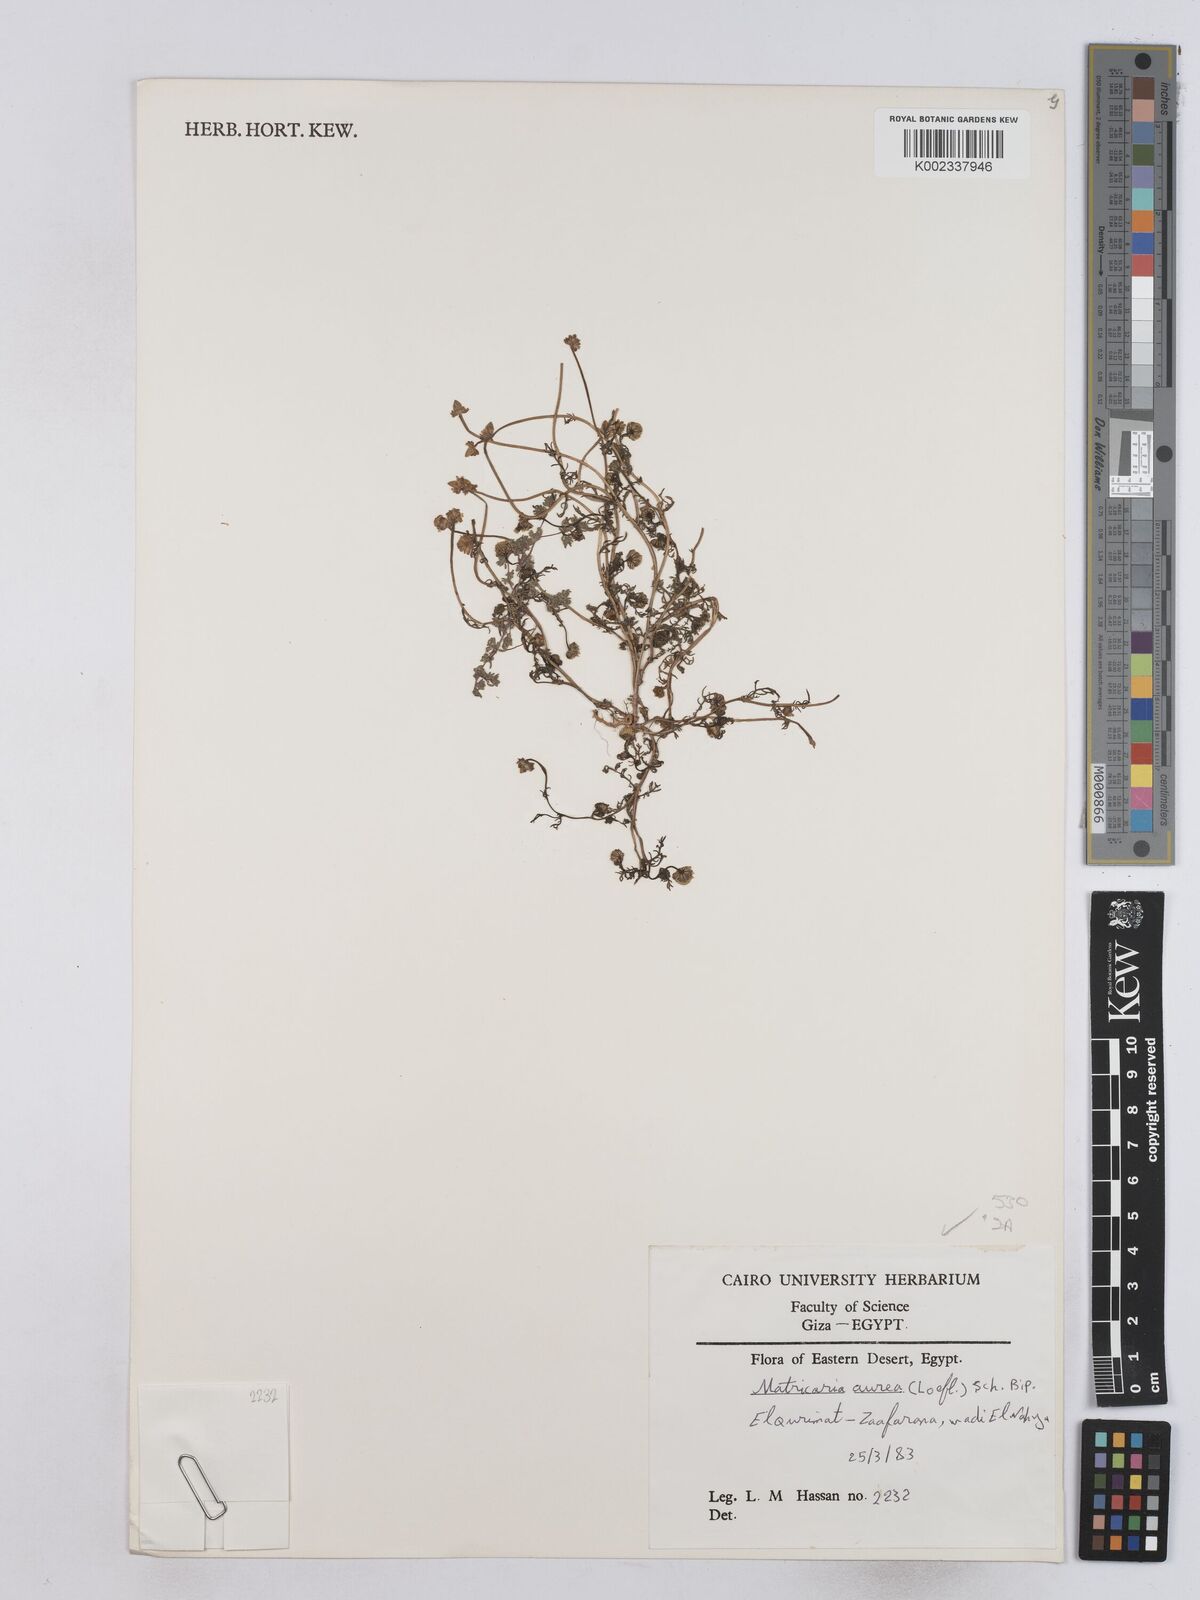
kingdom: Plantae
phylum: Tracheophyta
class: Magnoliopsida
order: Asterales
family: Asteraceae
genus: Matricaria
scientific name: Matricaria
